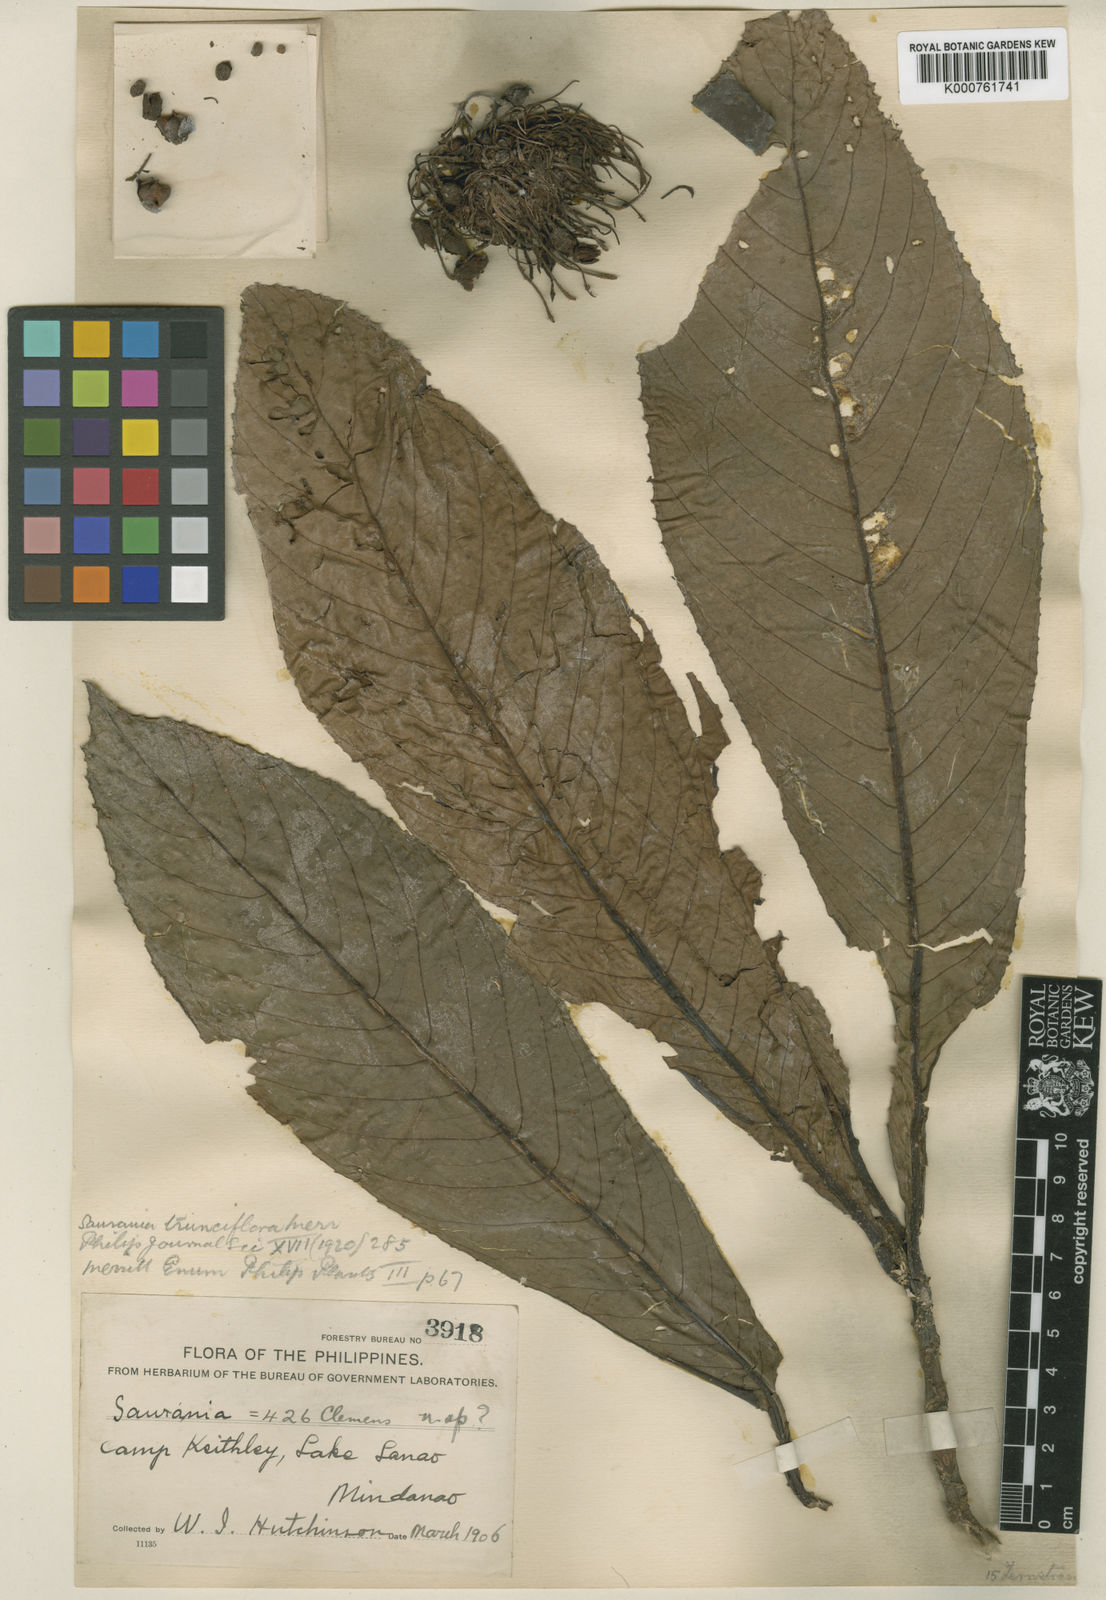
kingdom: Plantae
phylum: Tracheophyta
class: Magnoliopsida
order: Ericales
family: Actinidiaceae
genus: Saurauia
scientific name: Saurauia trunciflora
